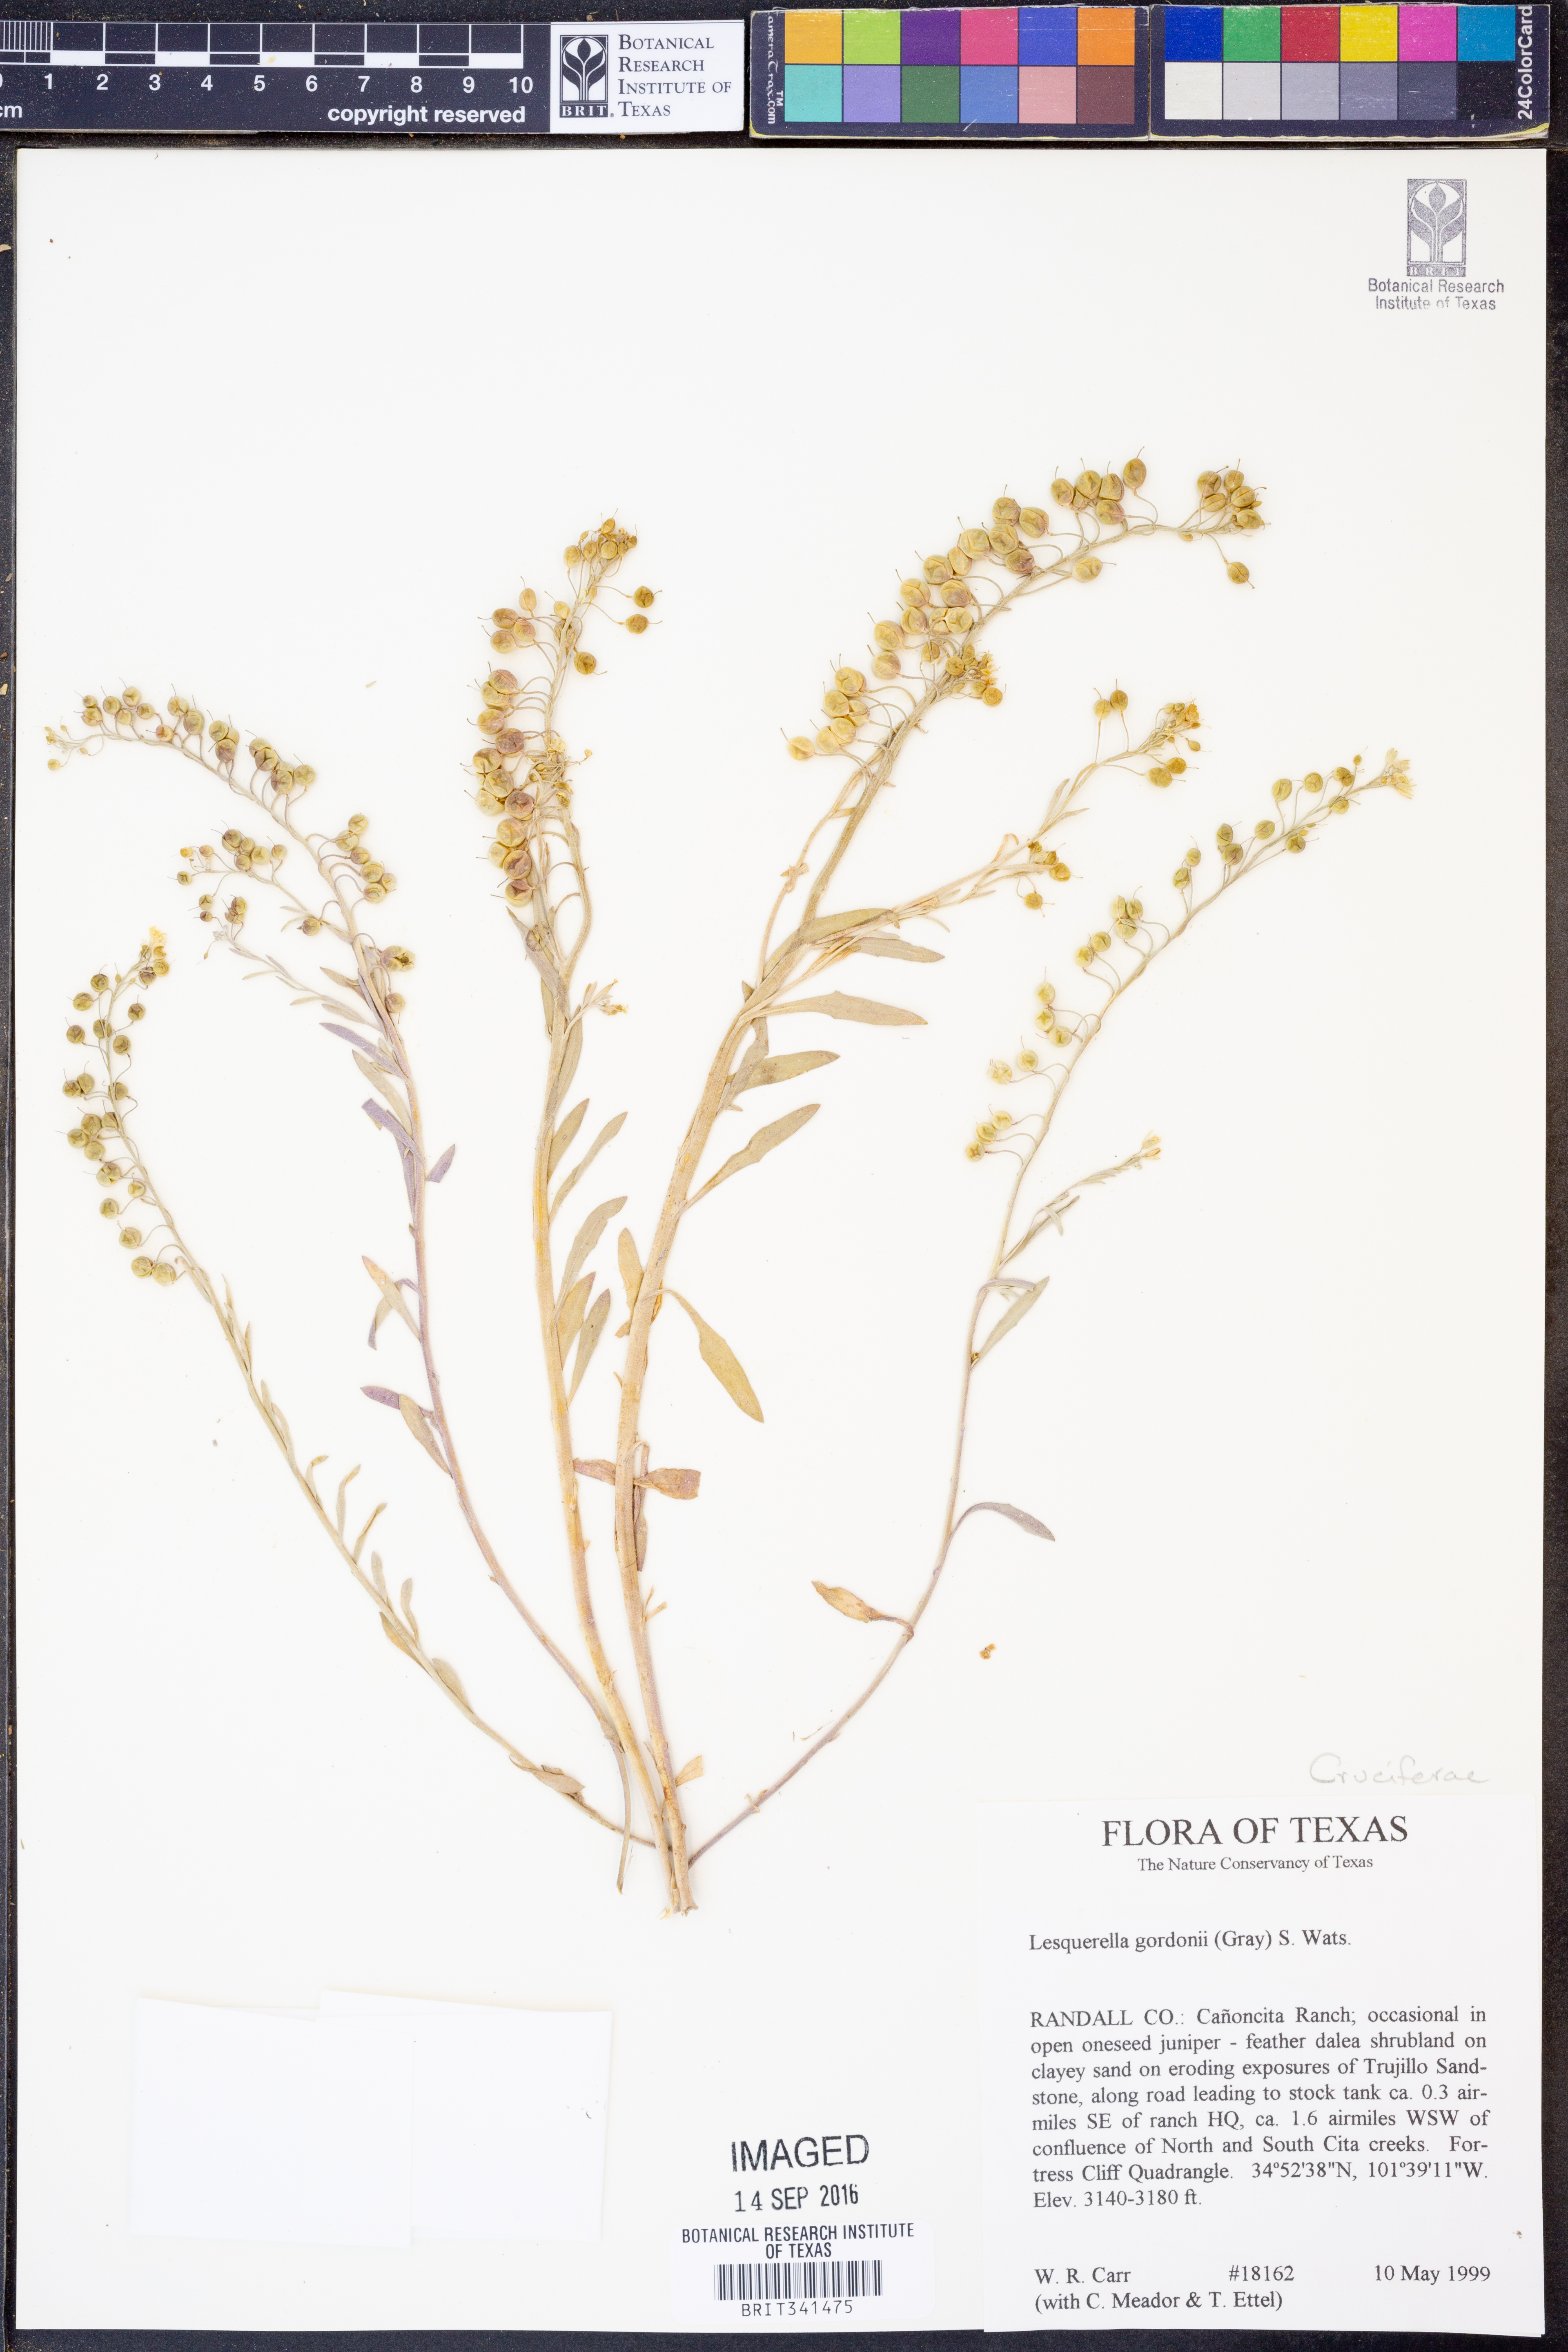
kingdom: Plantae
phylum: Tracheophyta
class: Magnoliopsida
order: Brassicales
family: Brassicaceae
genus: Physaria
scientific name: Physaria gordonii
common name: Gordon's bladderpod
